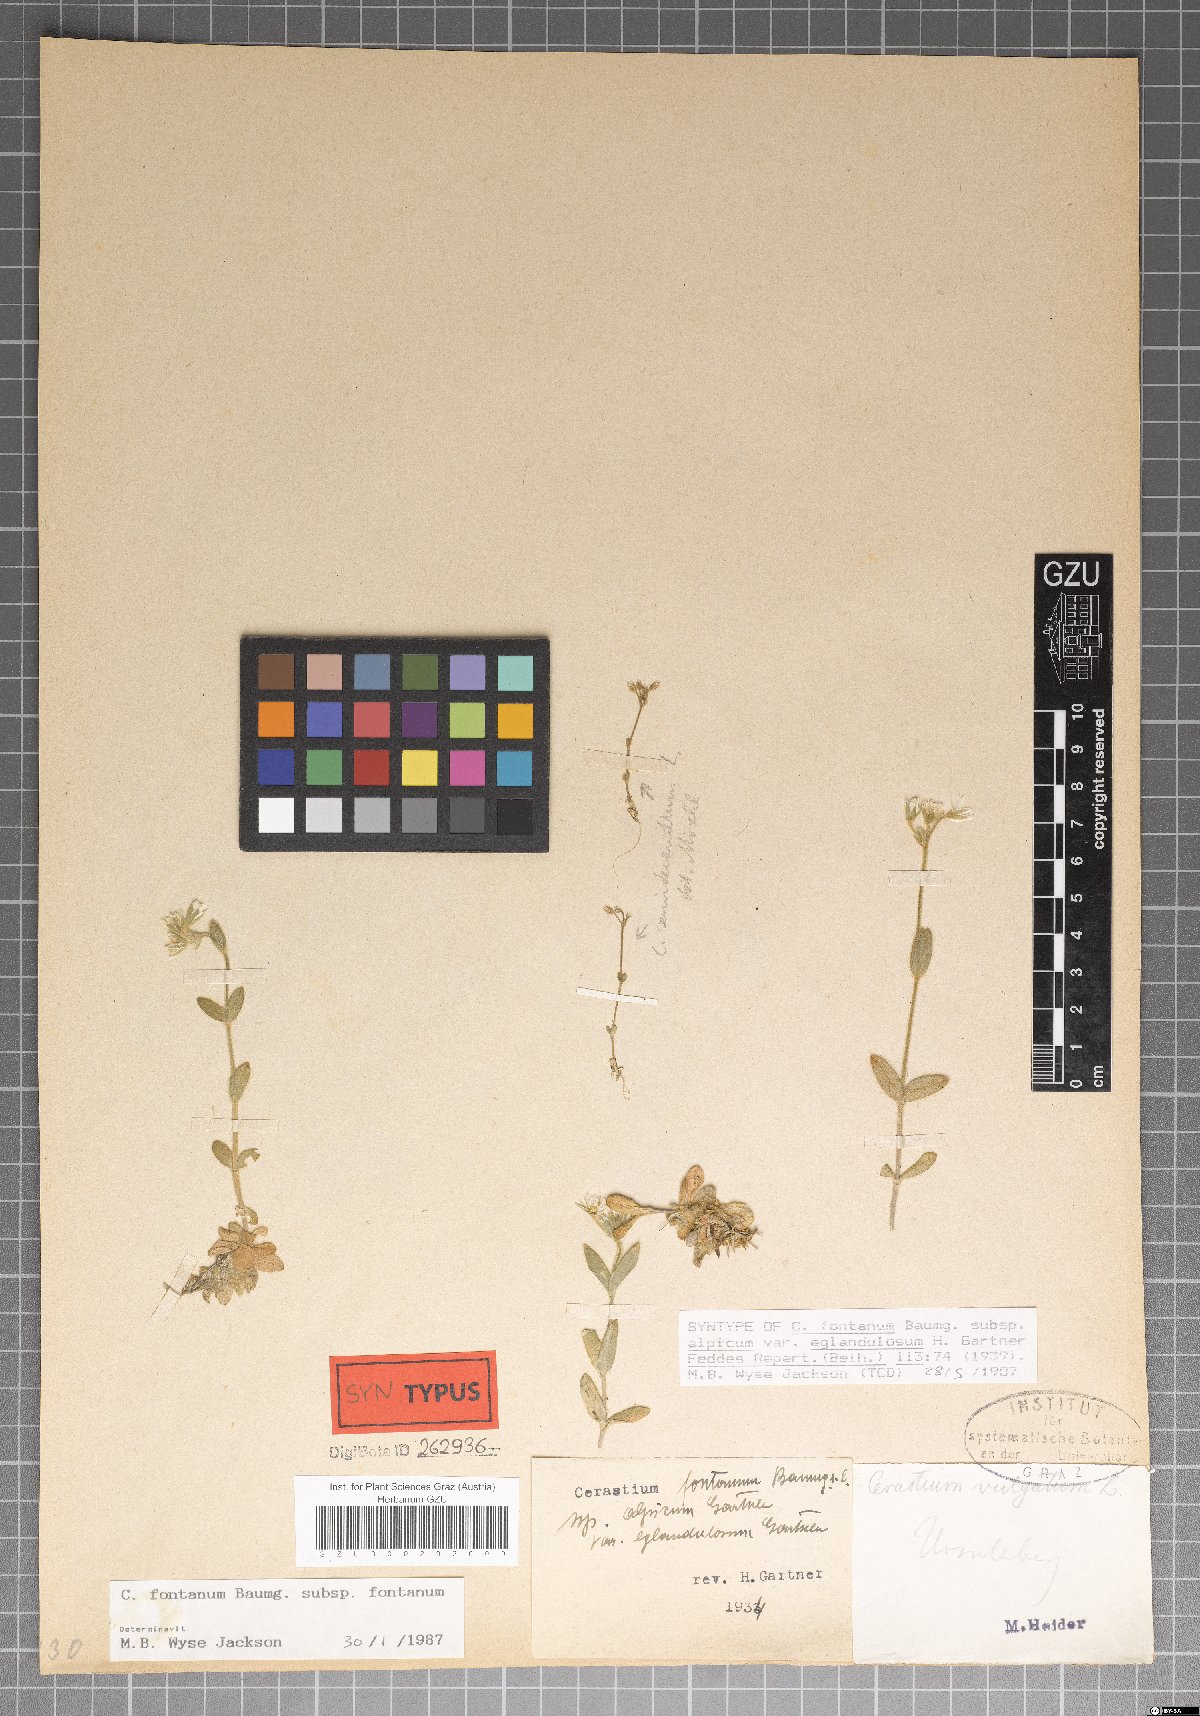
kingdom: Plantae
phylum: Tracheophyta
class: Magnoliopsida
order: Caryophyllales
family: Caryophyllaceae
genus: Cerastium
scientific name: Cerastium holosteoides
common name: Big chickweed
